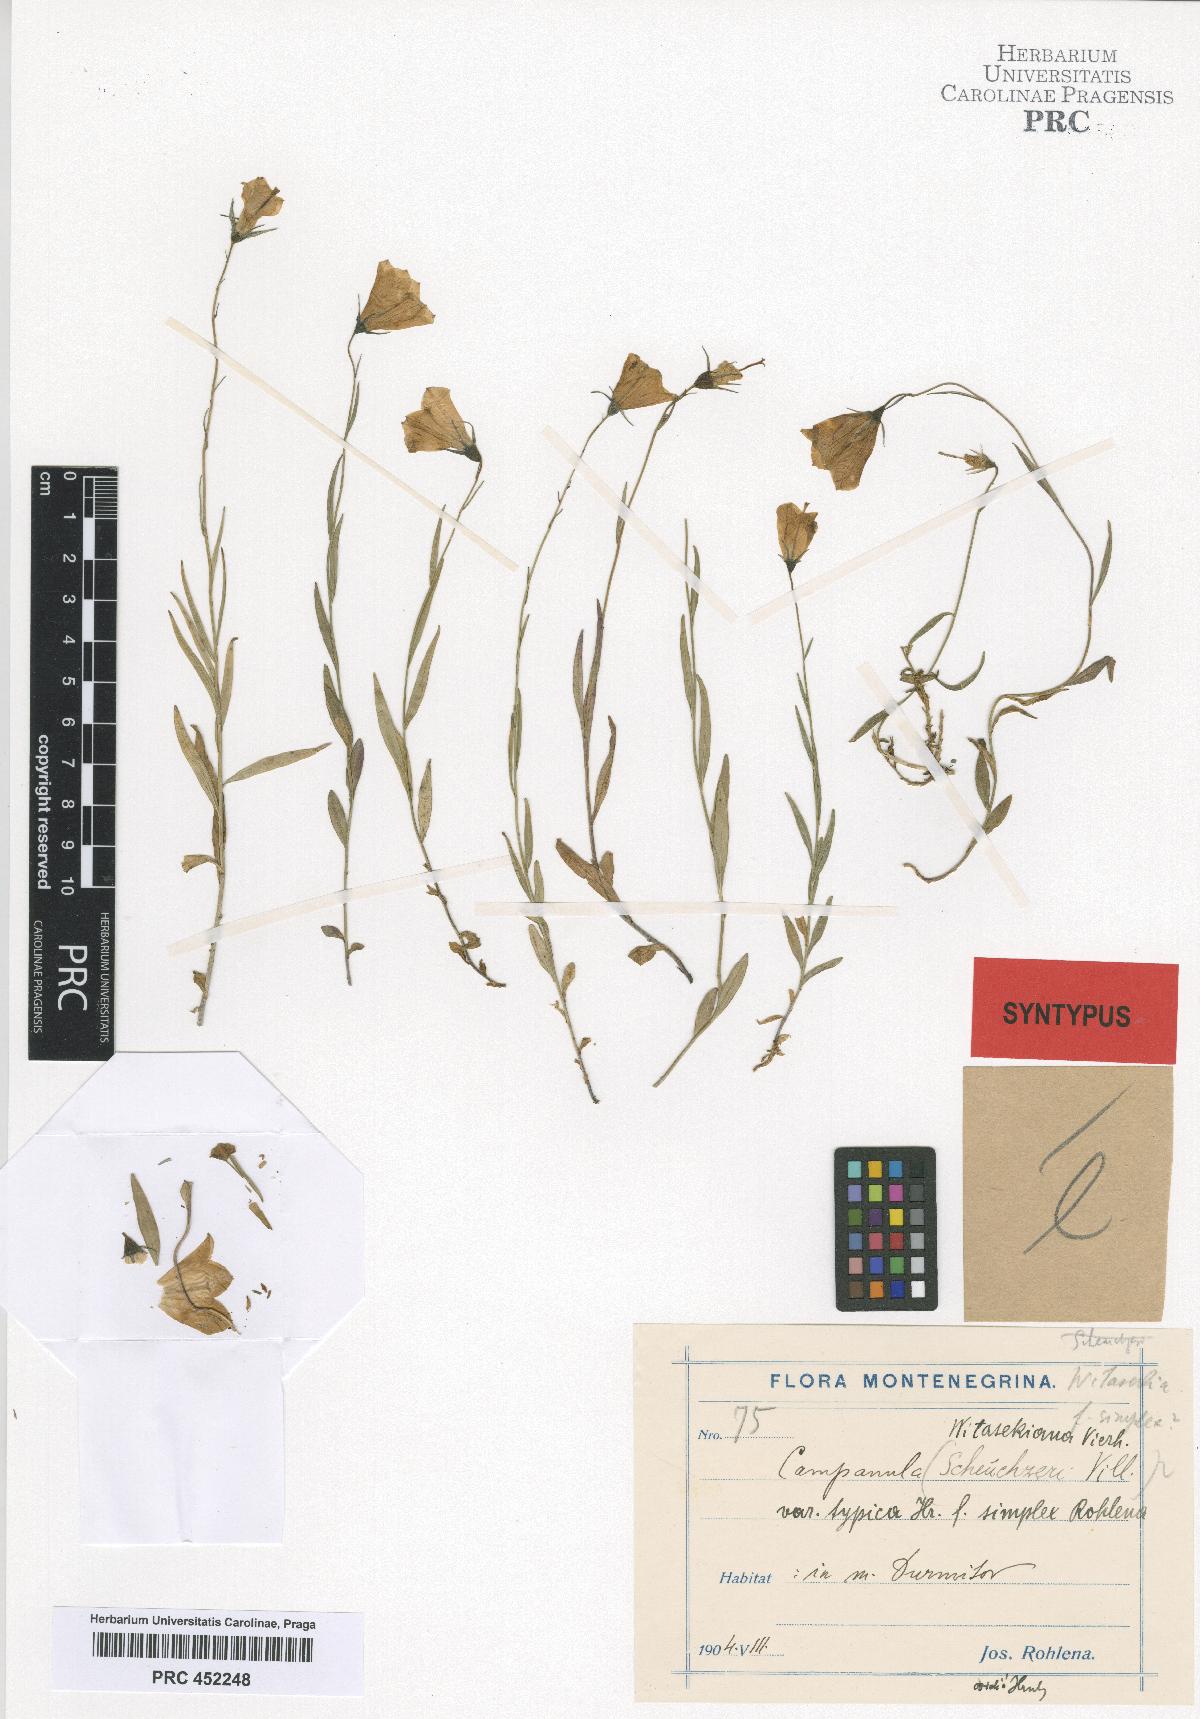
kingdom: Plantae
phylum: Tracheophyta
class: Magnoliopsida
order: Asterales
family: Campanulaceae
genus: Campanula
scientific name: Campanula witasekiana
